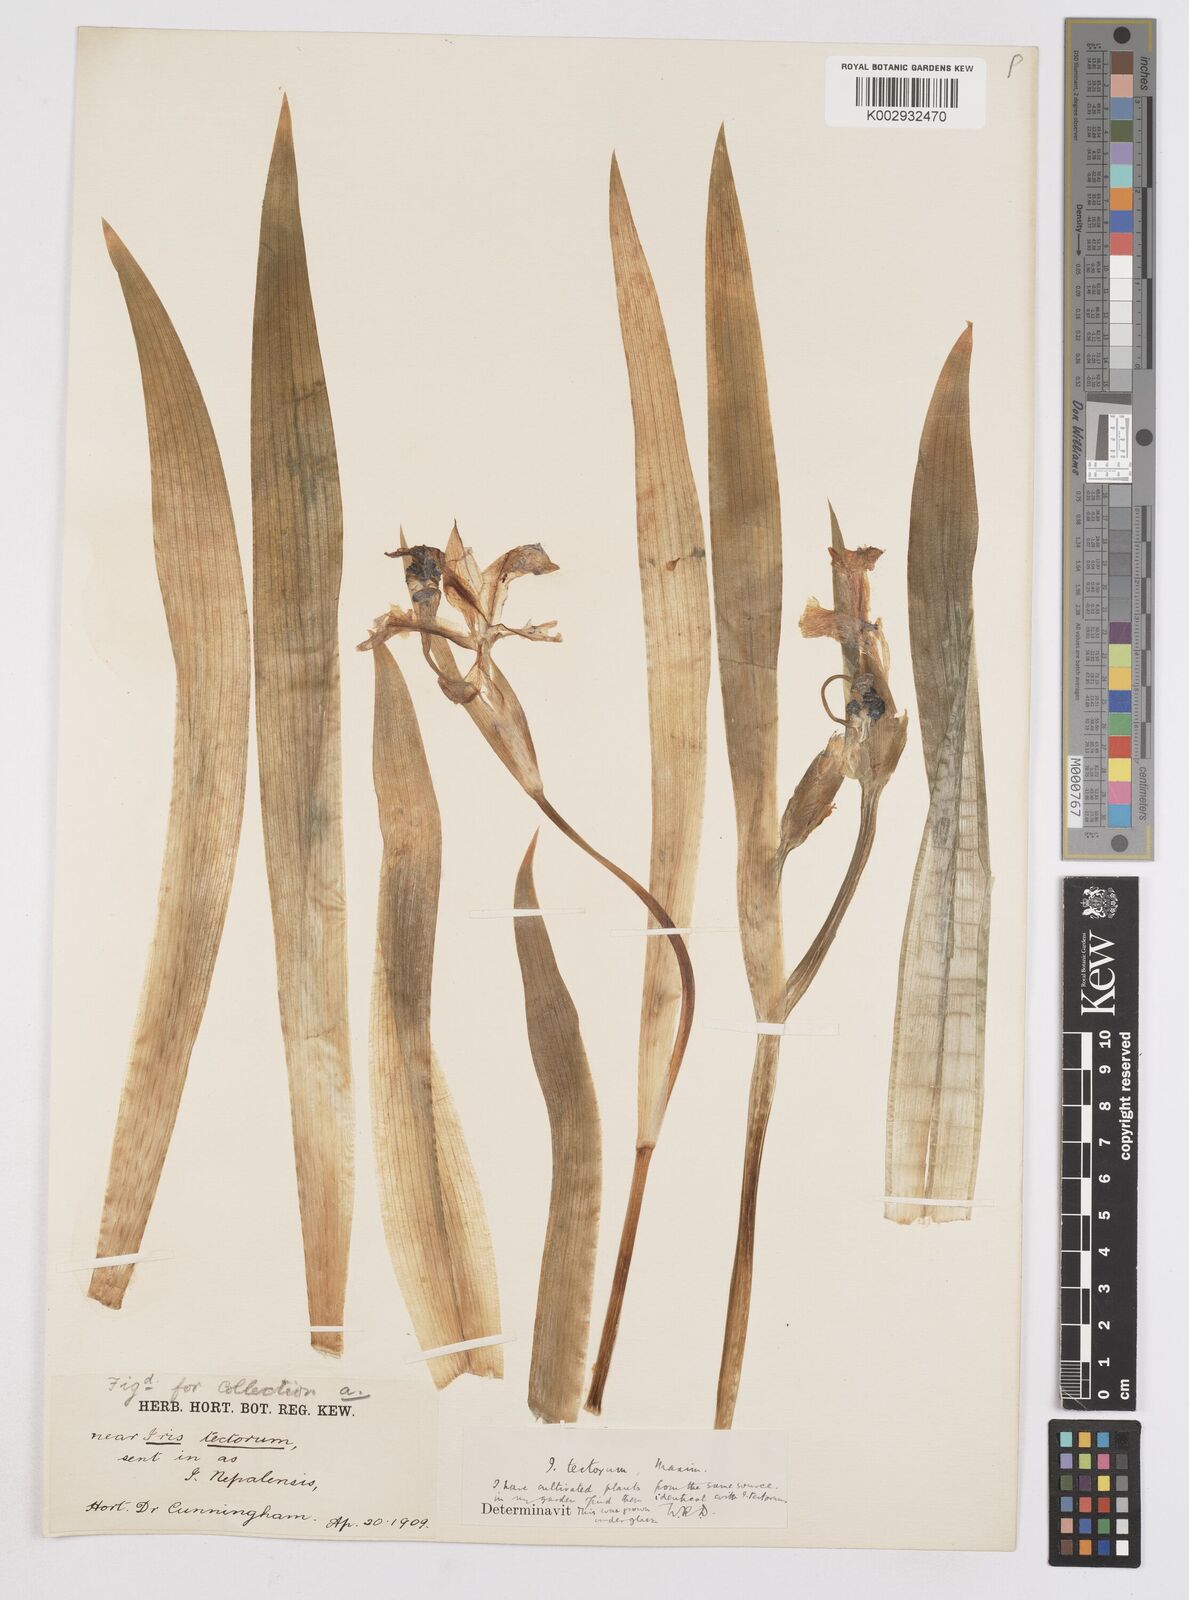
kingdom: Plantae
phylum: Tracheophyta
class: Liliopsida
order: Asparagales
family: Iridaceae
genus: Iris
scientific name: Iris tectorum
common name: Wall iris
